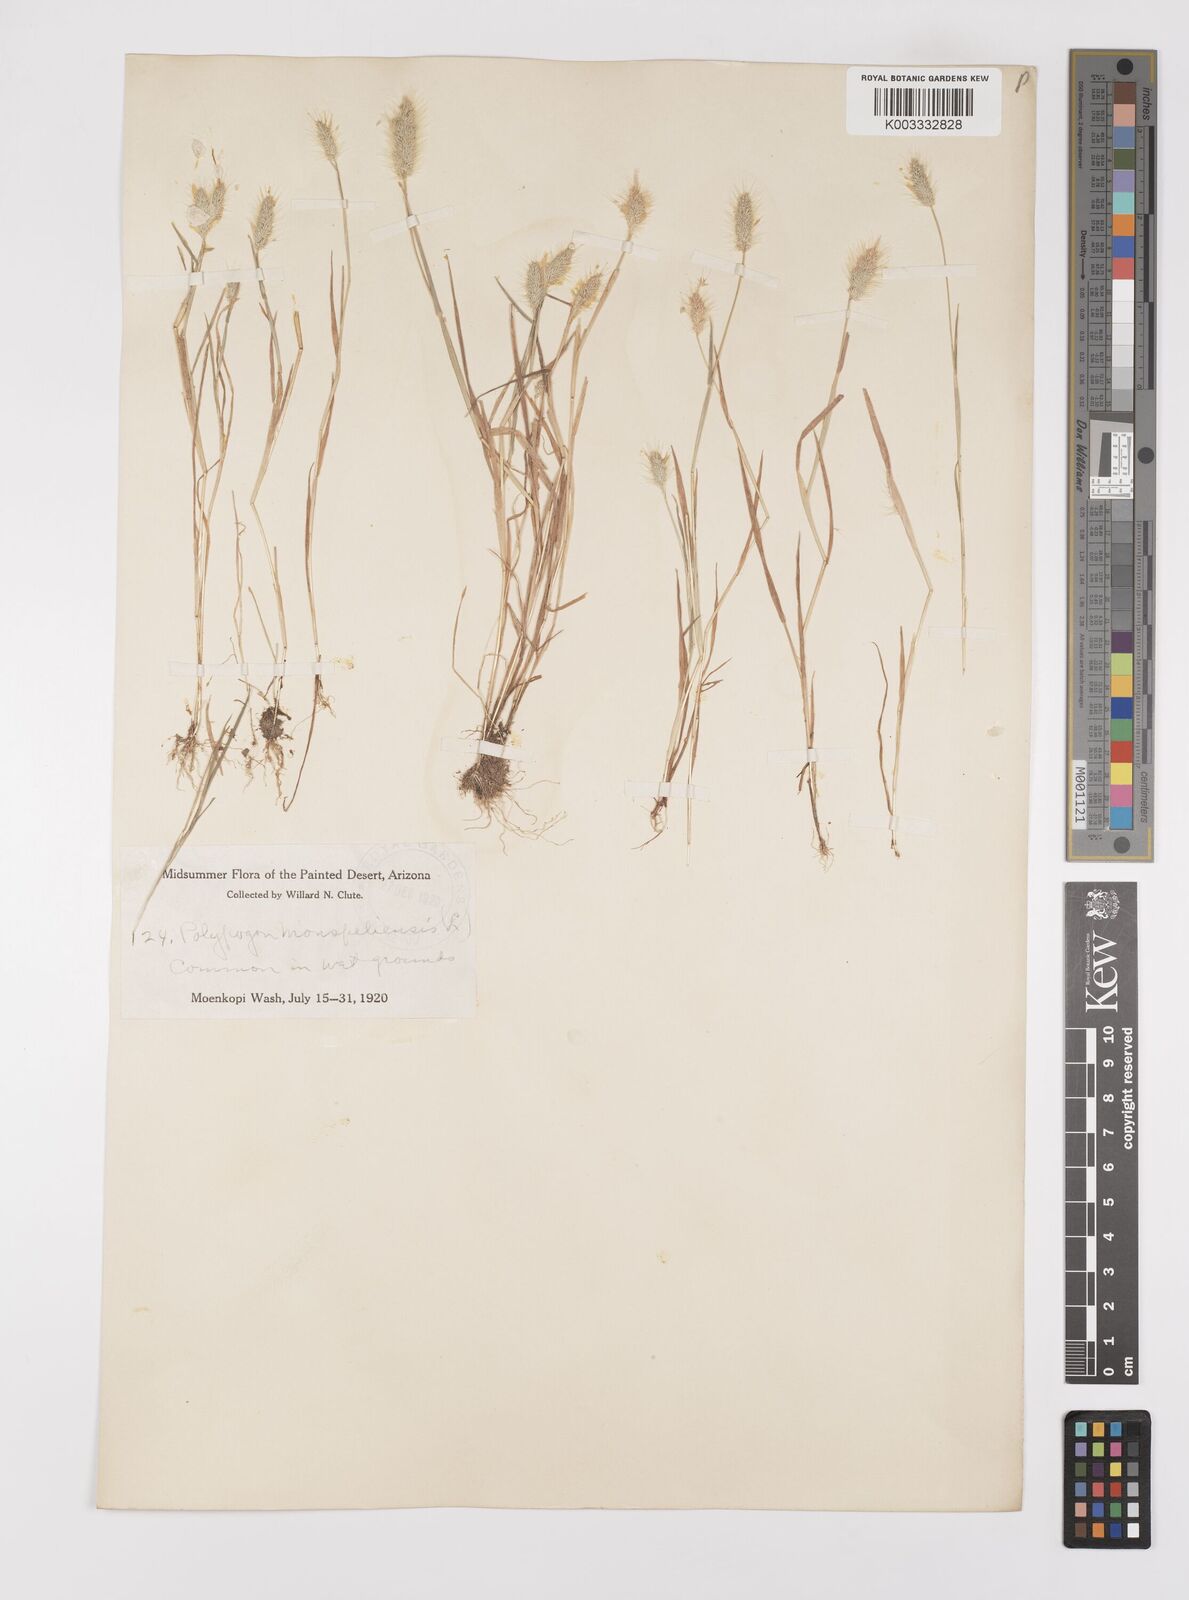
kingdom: Plantae
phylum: Tracheophyta
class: Liliopsida
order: Poales
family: Poaceae
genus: Polypogon
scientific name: Polypogon monspeliensis
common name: Annual rabbitsfoot grass
